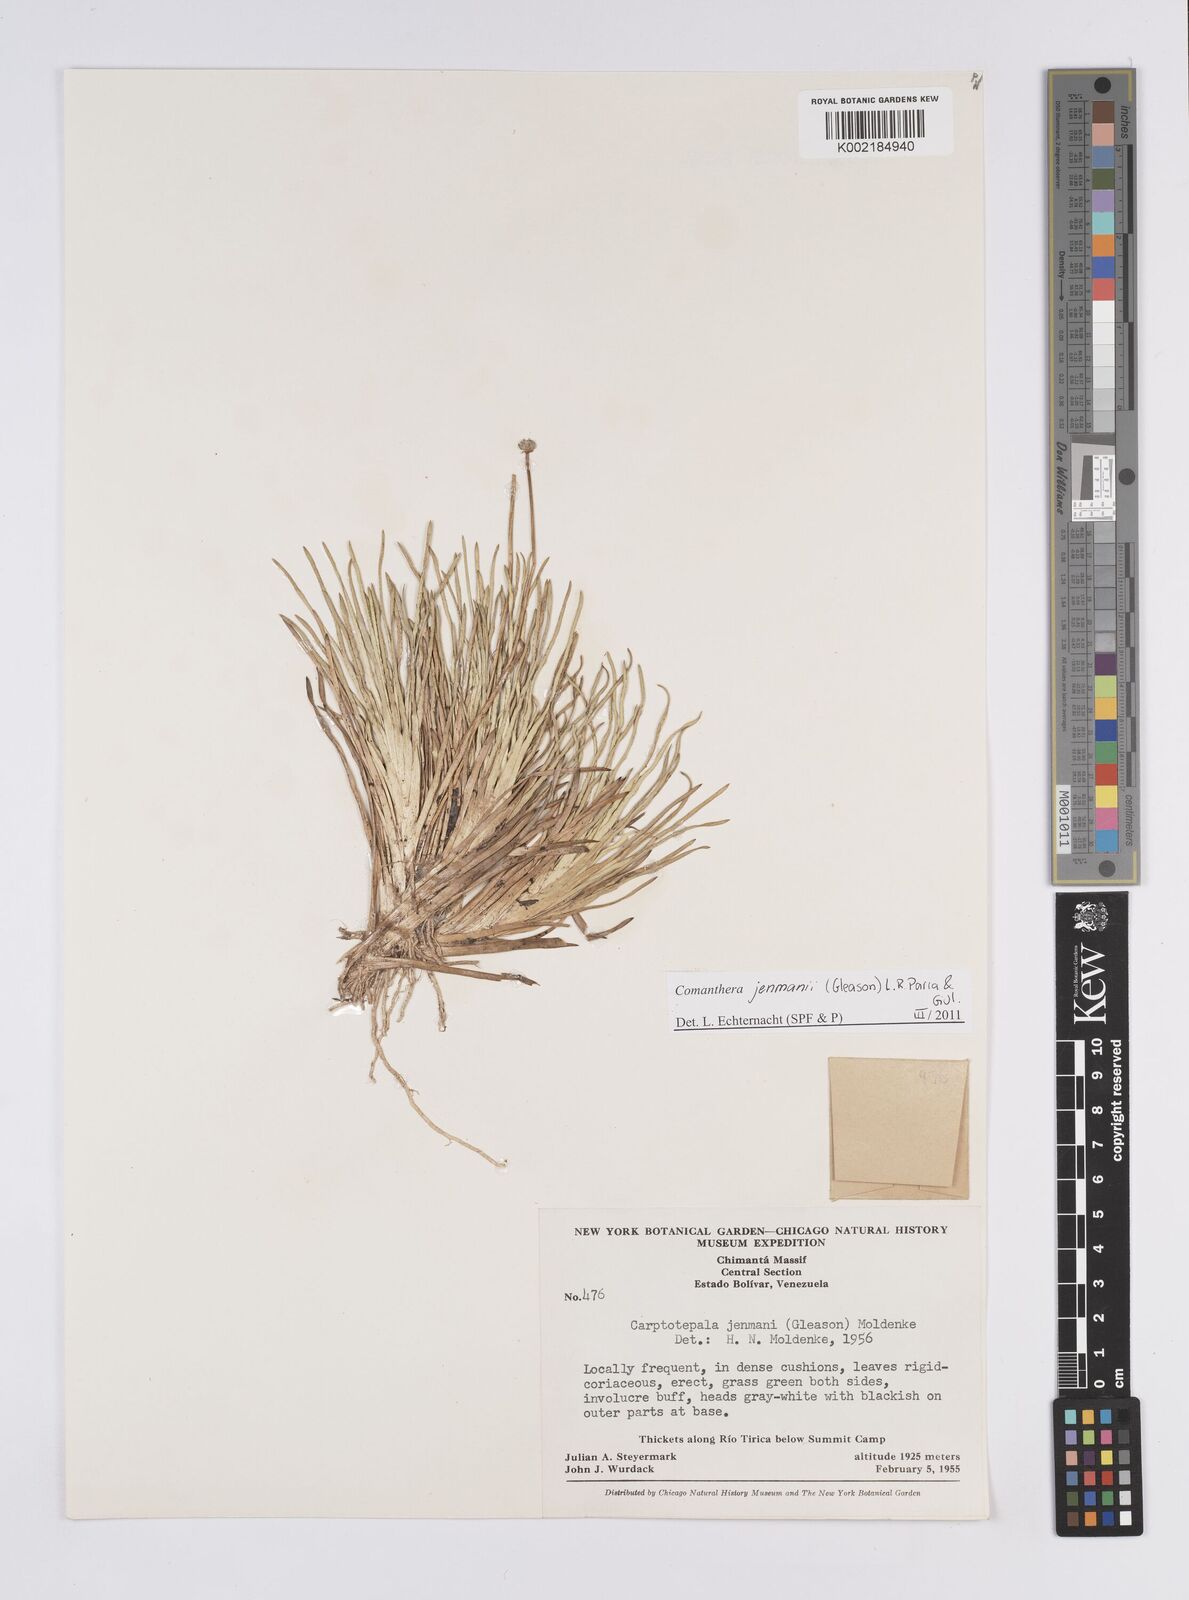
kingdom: Plantae
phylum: Tracheophyta
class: Liliopsida
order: Poales
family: Eriocaulaceae
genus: Comanthera
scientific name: Comanthera jenmanii
